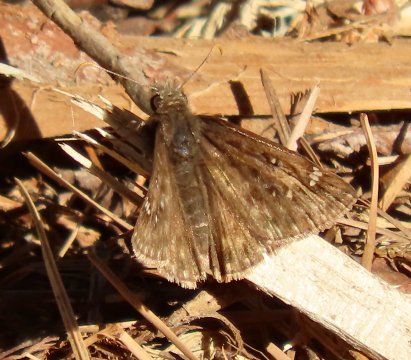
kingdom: Animalia
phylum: Arthropoda
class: Insecta
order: Lepidoptera
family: Hesperiidae
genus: Gesta
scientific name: Gesta
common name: Juvenal's Duskywing
